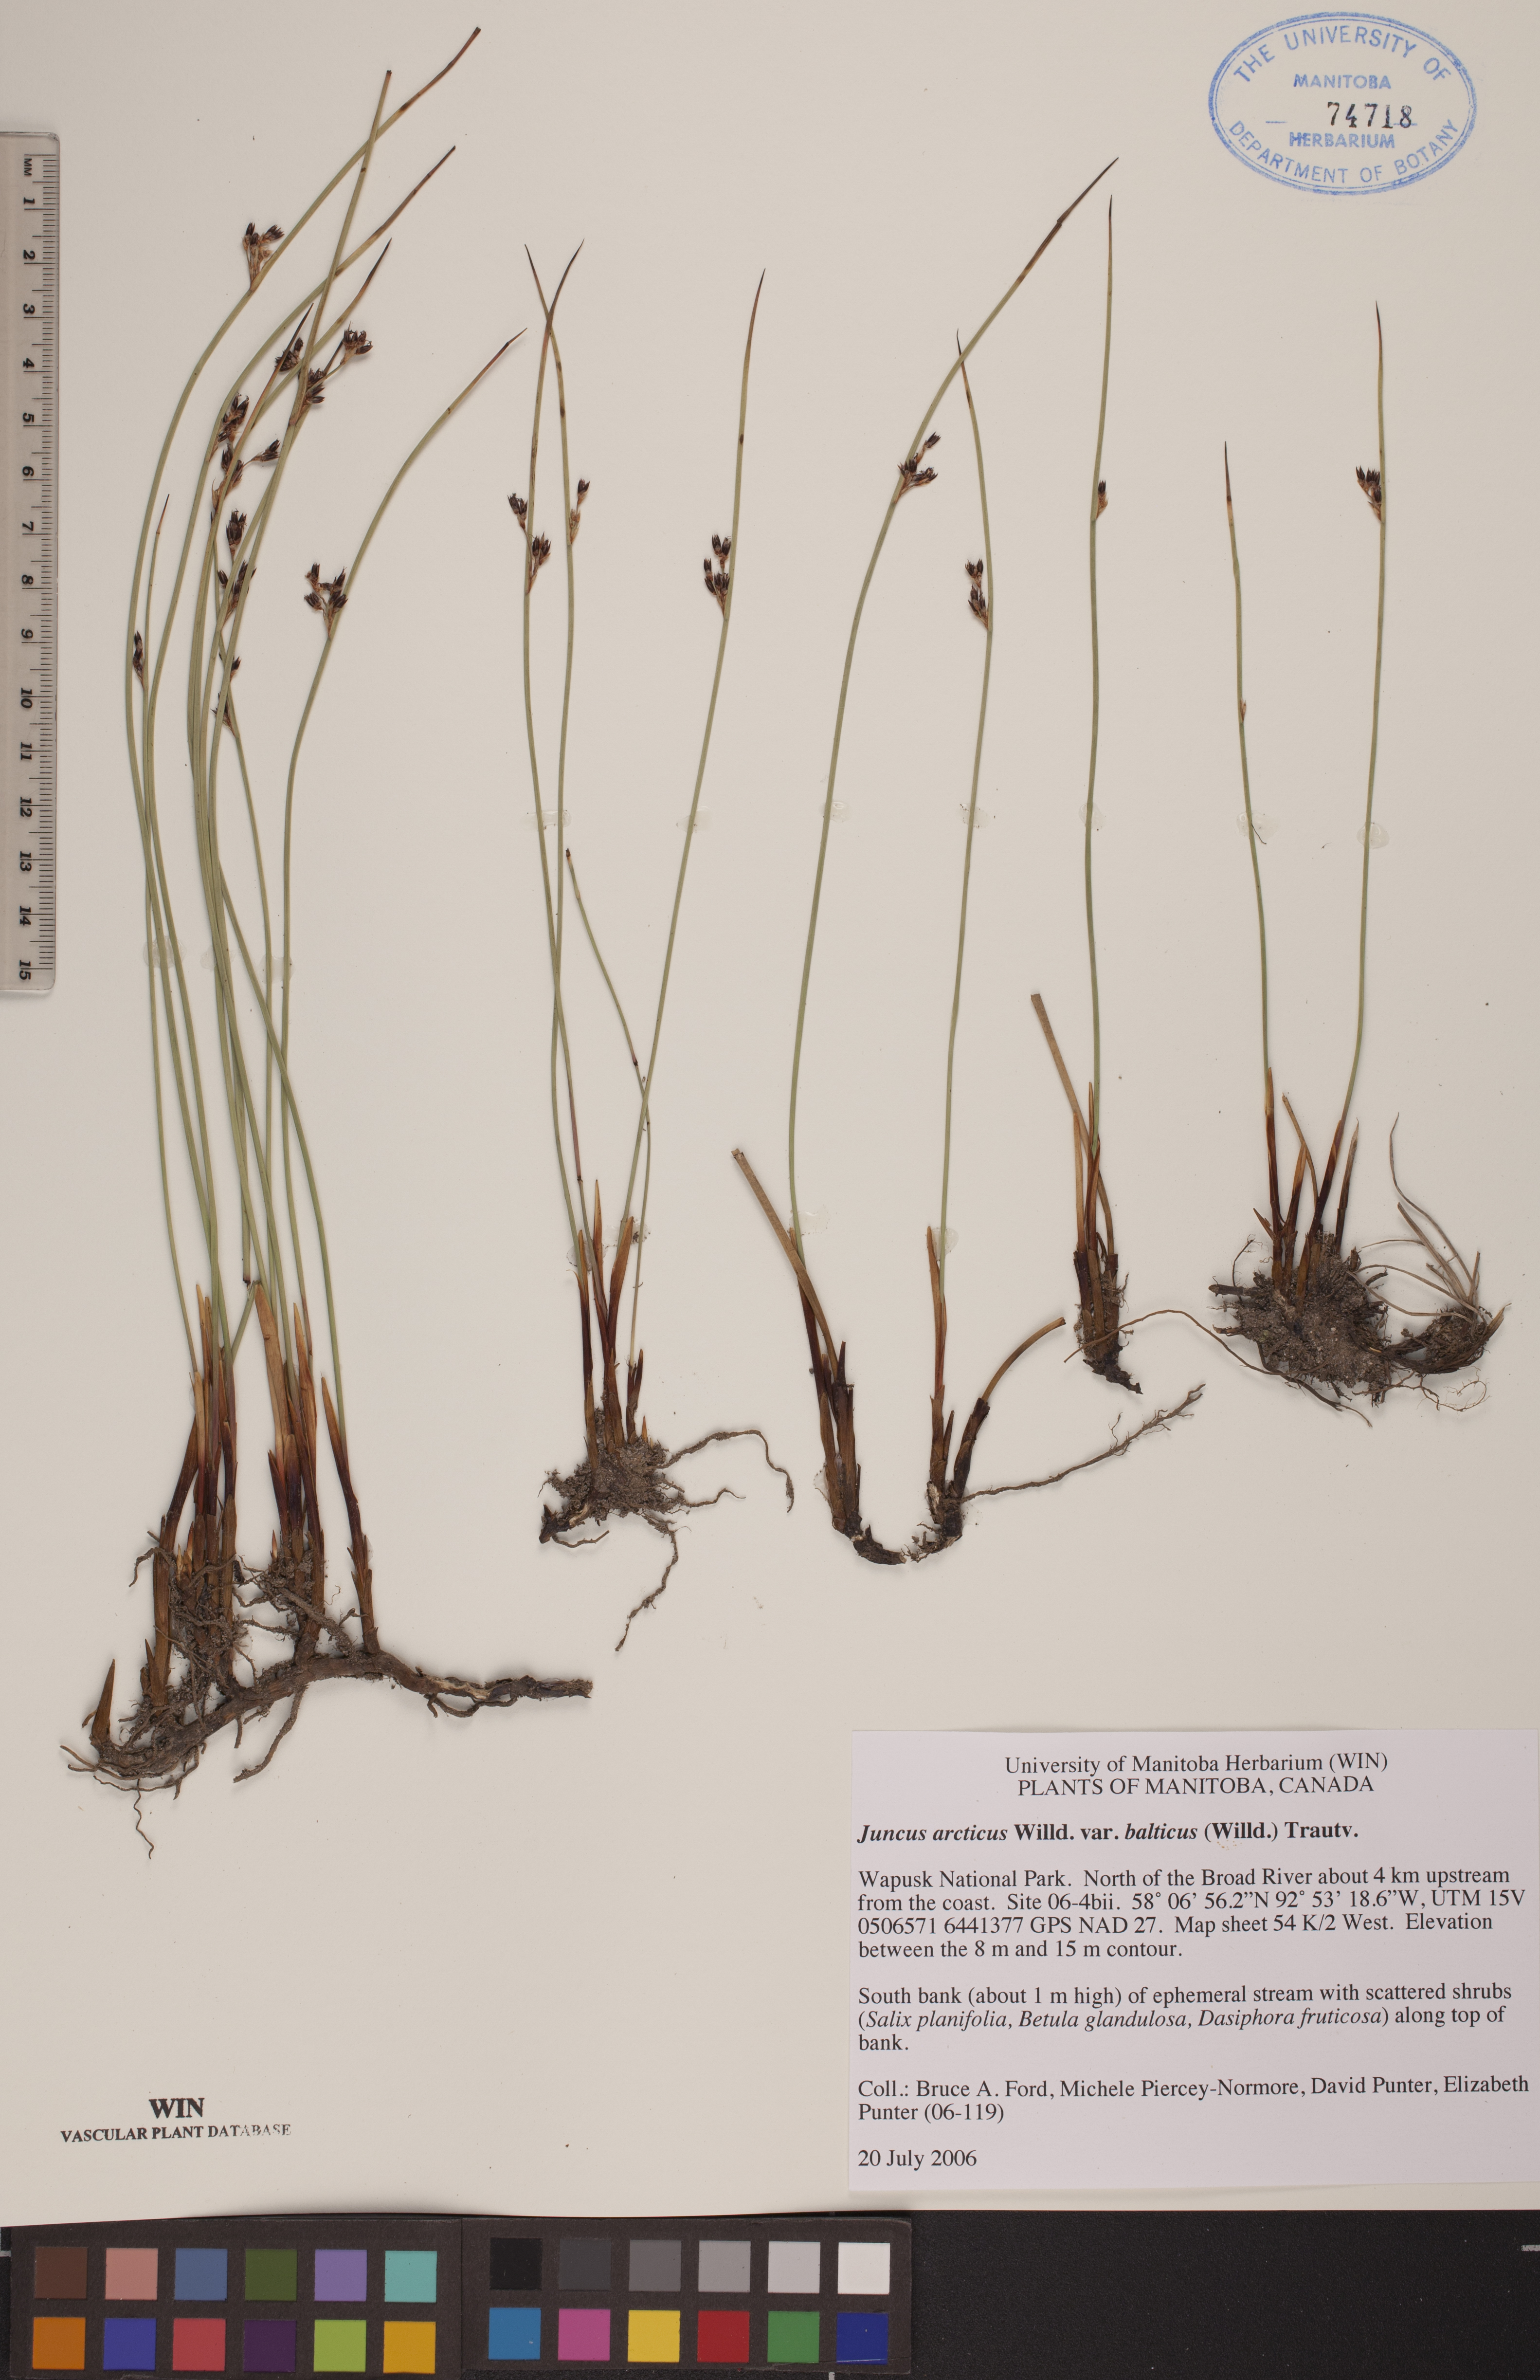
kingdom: Plantae
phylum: Tracheophyta
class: Liliopsida
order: Poales
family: Juncaceae
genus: Juncus
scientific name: Juncus balticus
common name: Baltic rush
